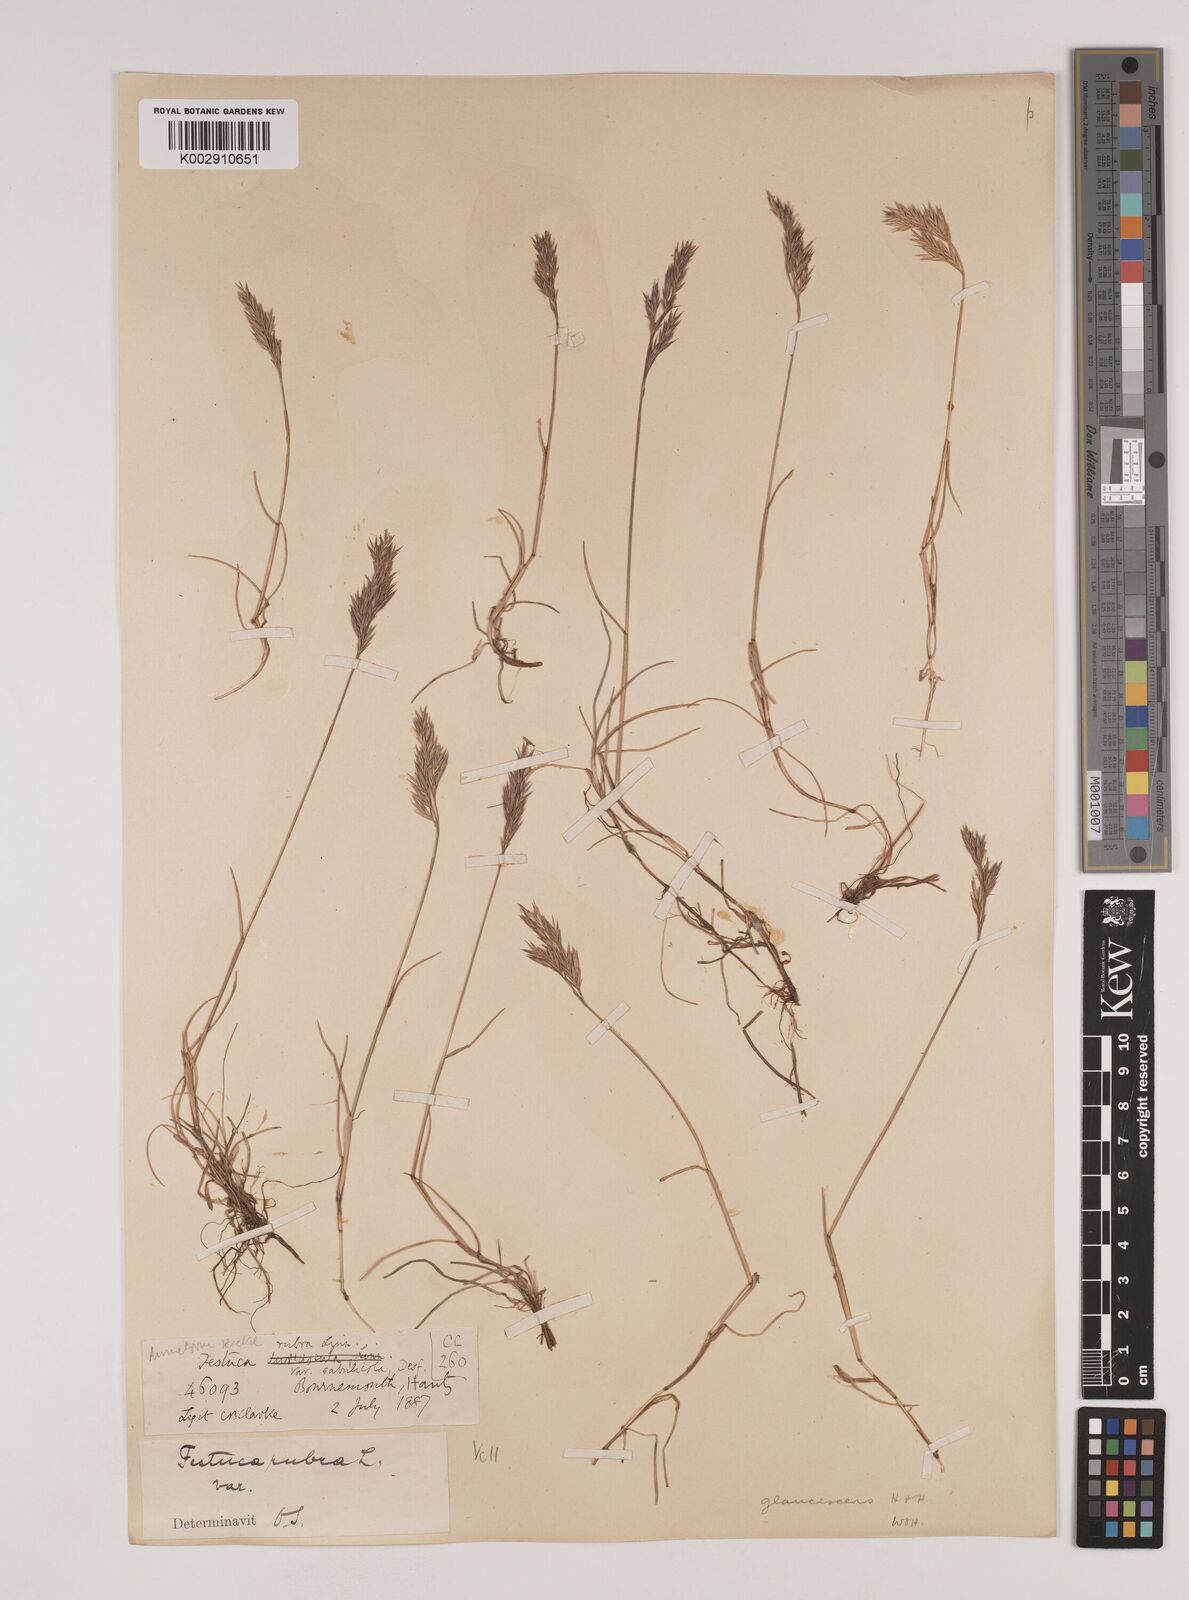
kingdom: Plantae
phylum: Tracheophyta
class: Liliopsida
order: Poales
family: Poaceae
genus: Festuca
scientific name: Festuca rubra
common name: Red fescue
